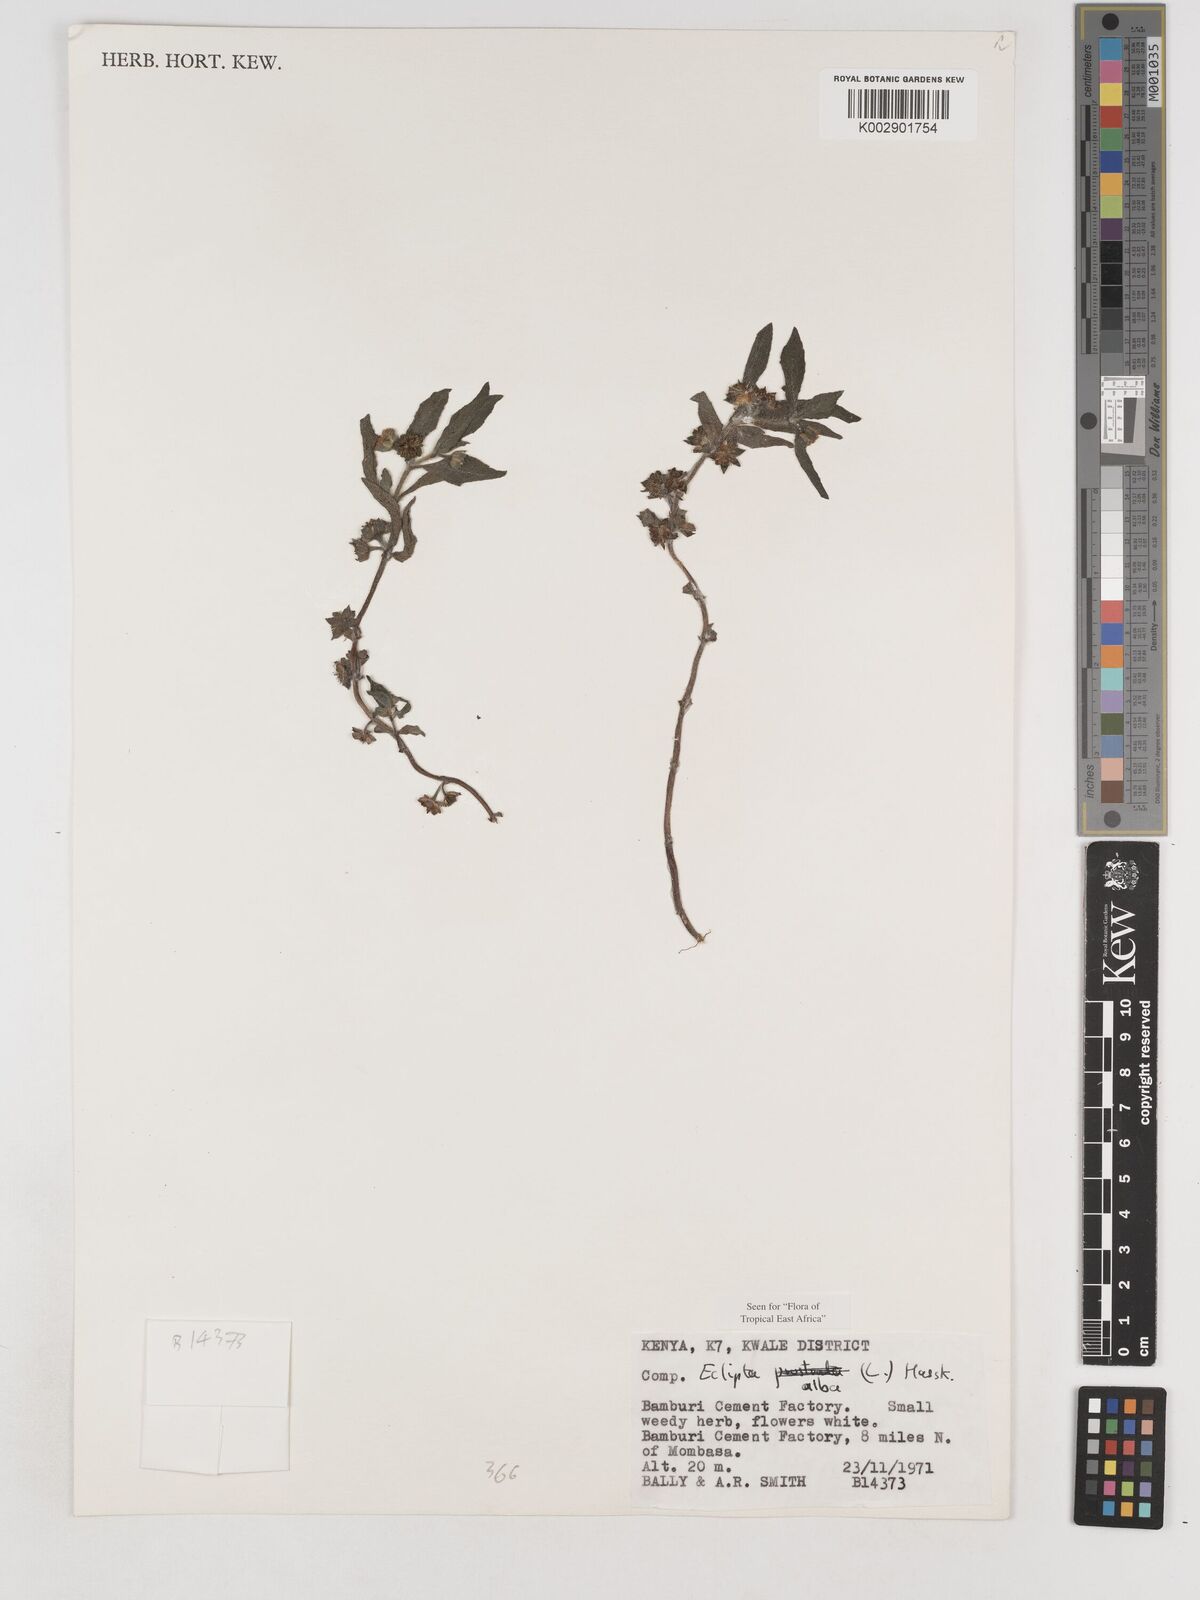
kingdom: Plantae
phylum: Tracheophyta
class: Magnoliopsida
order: Asterales
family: Asteraceae
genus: Eclipta
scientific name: Eclipta prostrata
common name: False daisy
